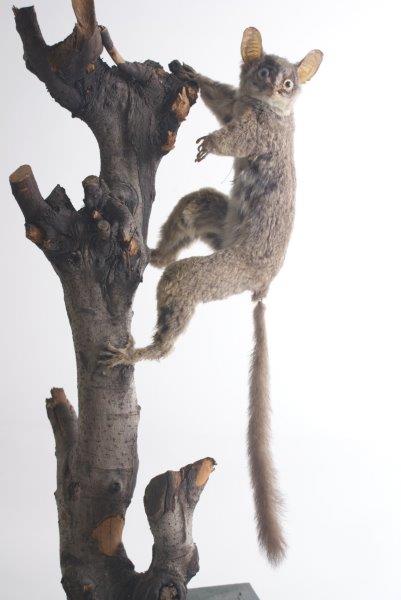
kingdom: Animalia
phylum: Chordata
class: Mammalia
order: Primates
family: Galagidae
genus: Galago
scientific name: Galago
